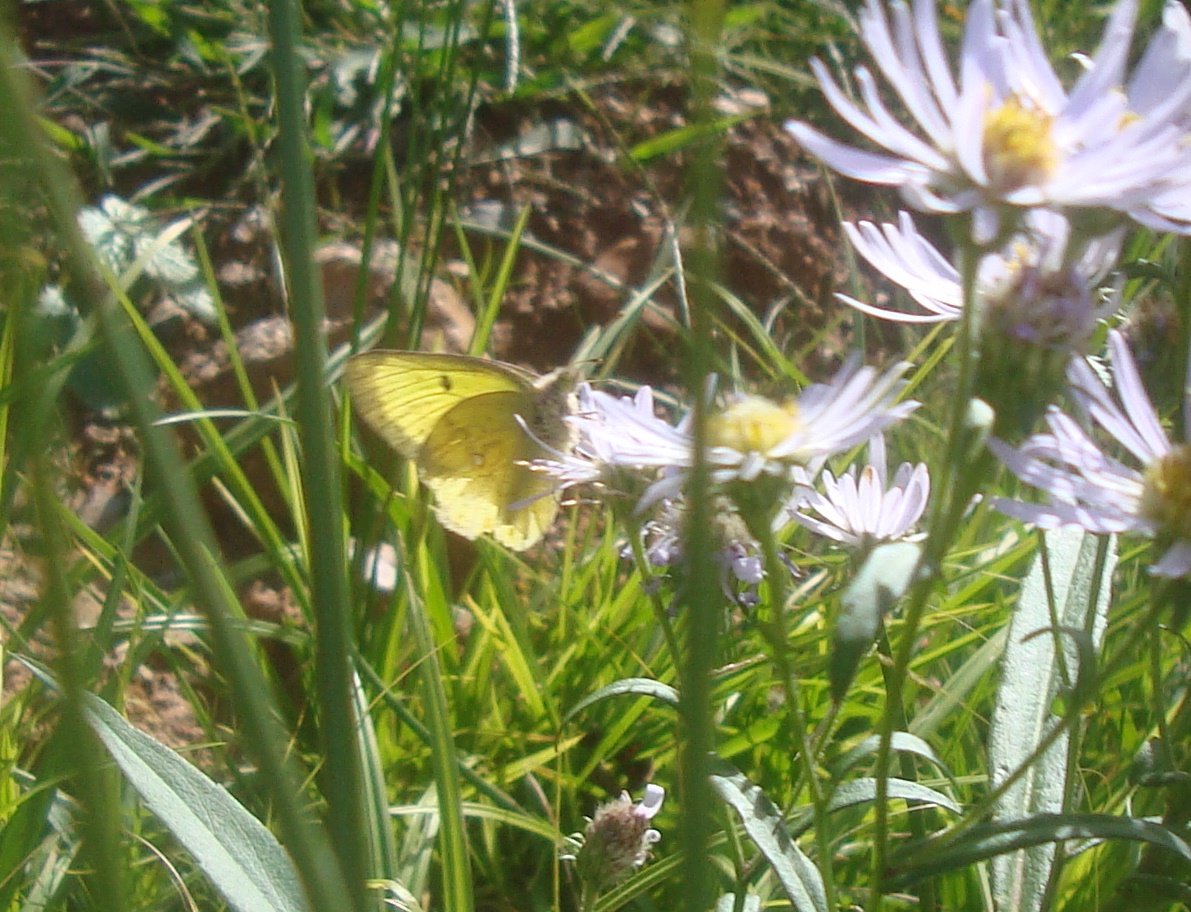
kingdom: Animalia
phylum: Arthropoda
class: Insecta
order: Lepidoptera
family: Pieridae
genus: Colias
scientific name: Colias philodice
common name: Clouded Sulphur
